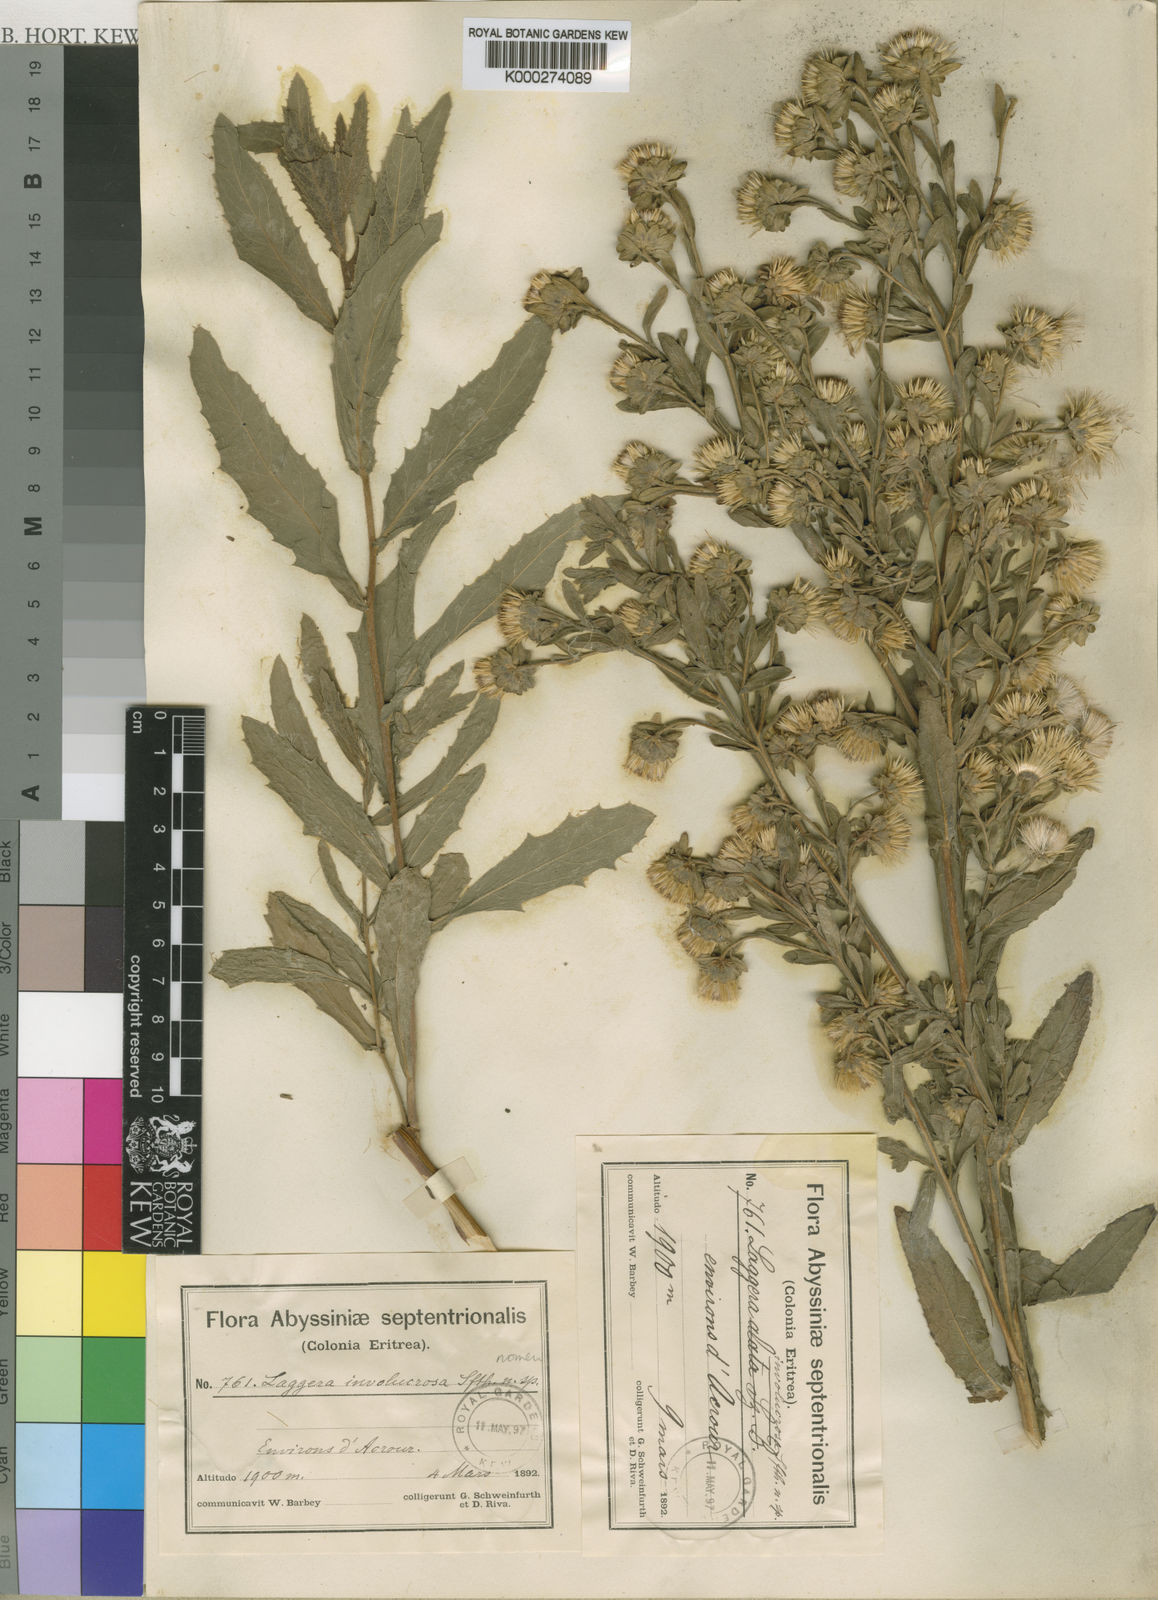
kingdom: Plantae
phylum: Tracheophyta
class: Magnoliopsida
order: Asterales
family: Asteraceae
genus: Laggera
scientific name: Laggera
